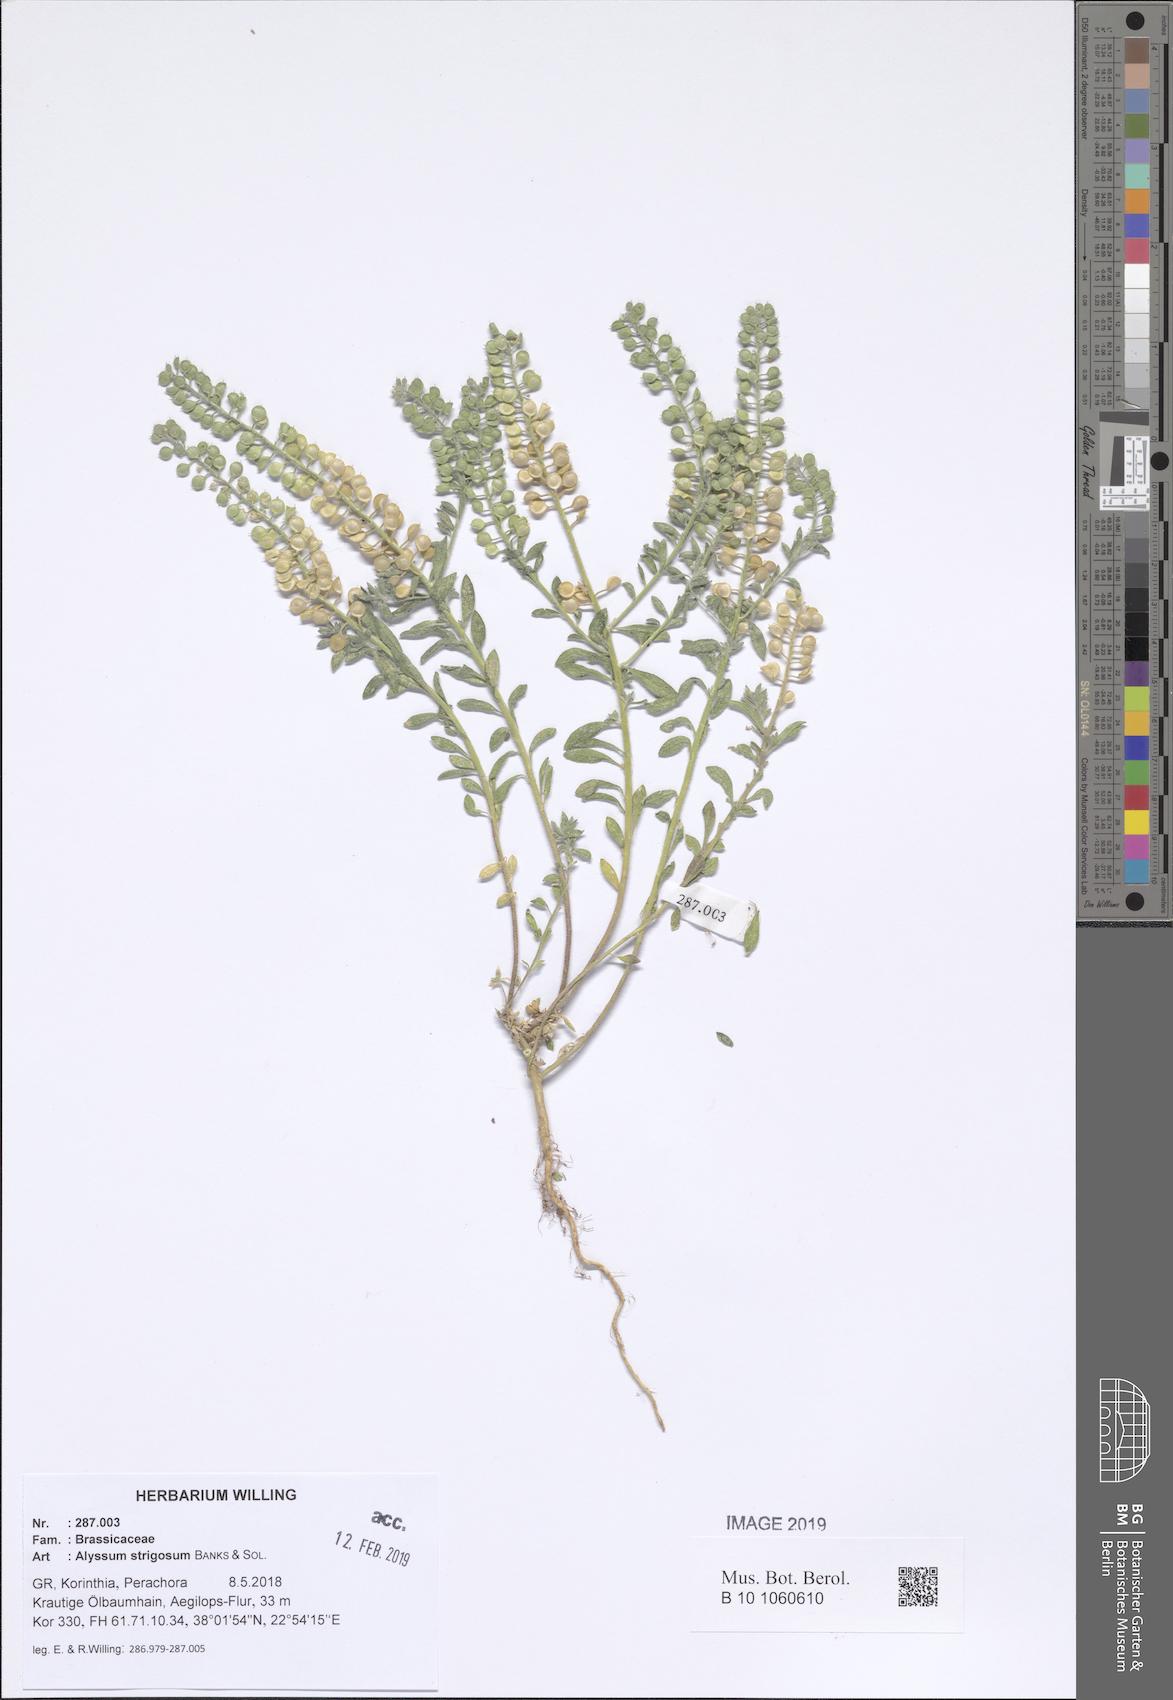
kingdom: Plantae
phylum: Tracheophyta
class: Magnoliopsida
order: Brassicales
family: Brassicaceae
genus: Alyssum
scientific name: Alyssum strigosum
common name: Alyssum
